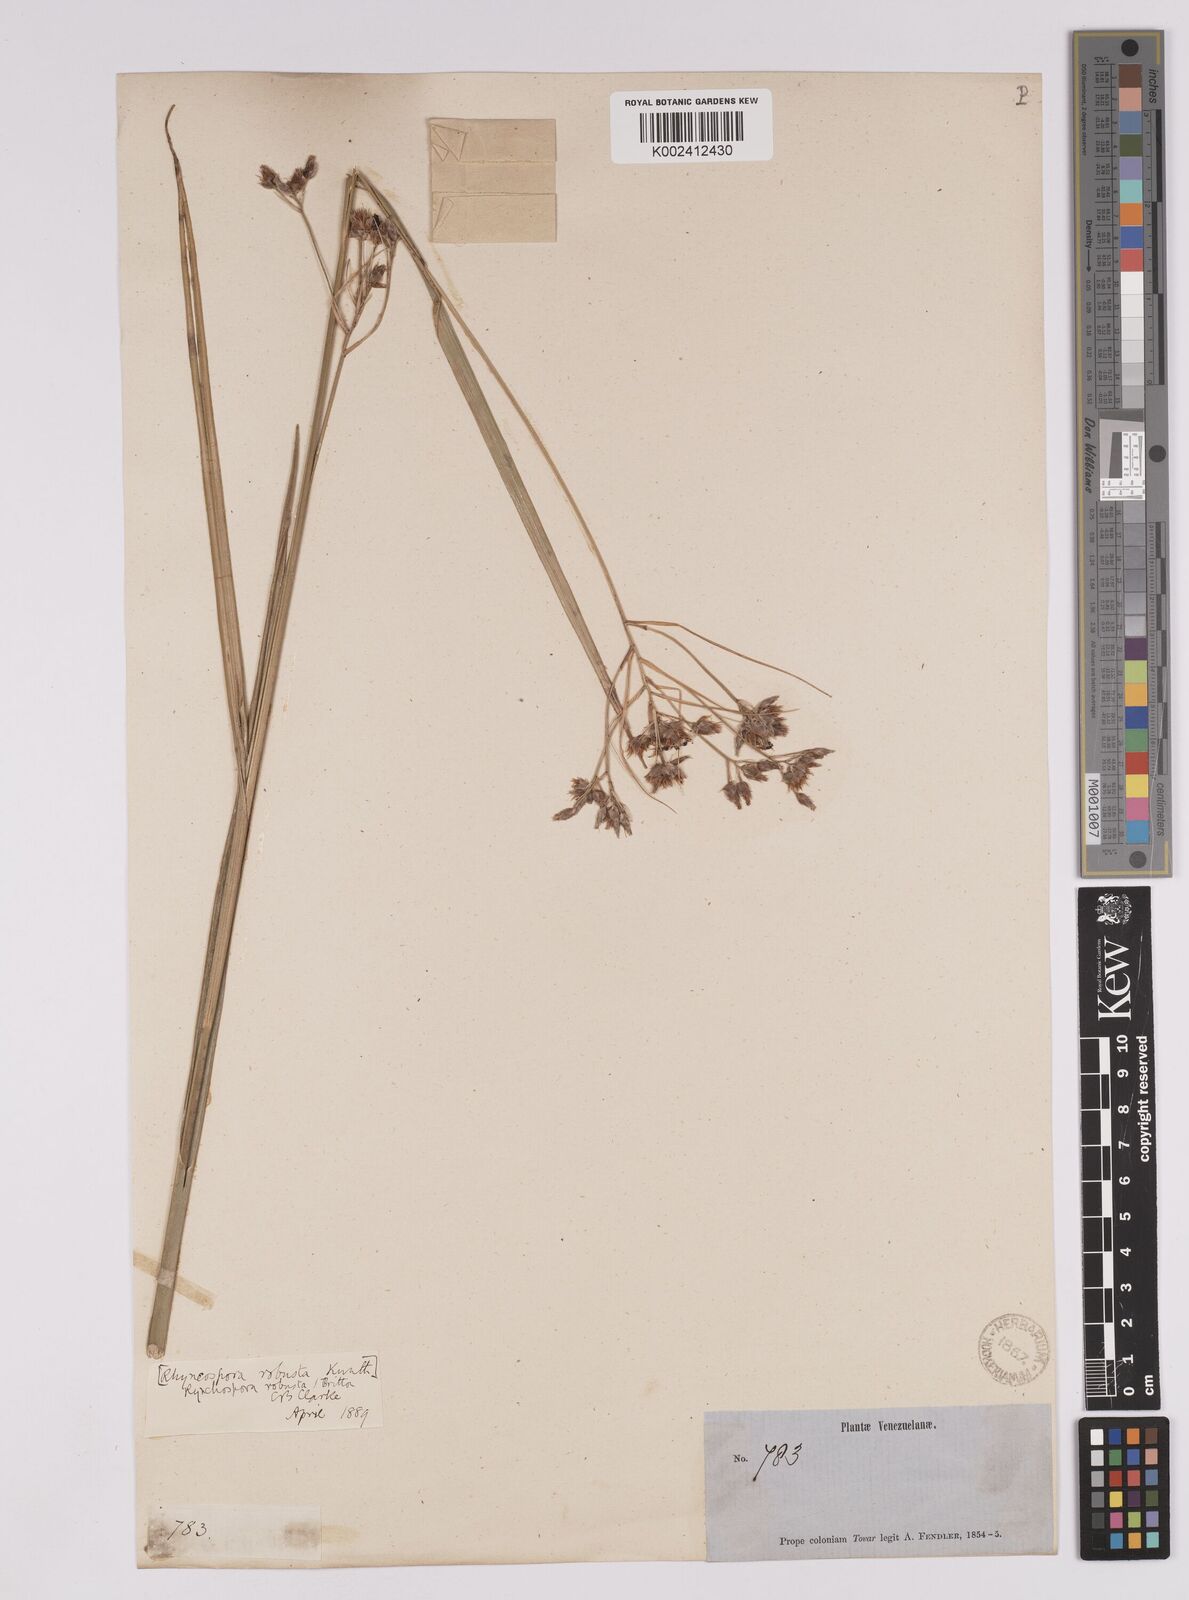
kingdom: Plantae
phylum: Tracheophyta
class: Liliopsida
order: Poales
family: Cyperaceae
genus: Rhynchospora
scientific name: Rhynchospora robusta
